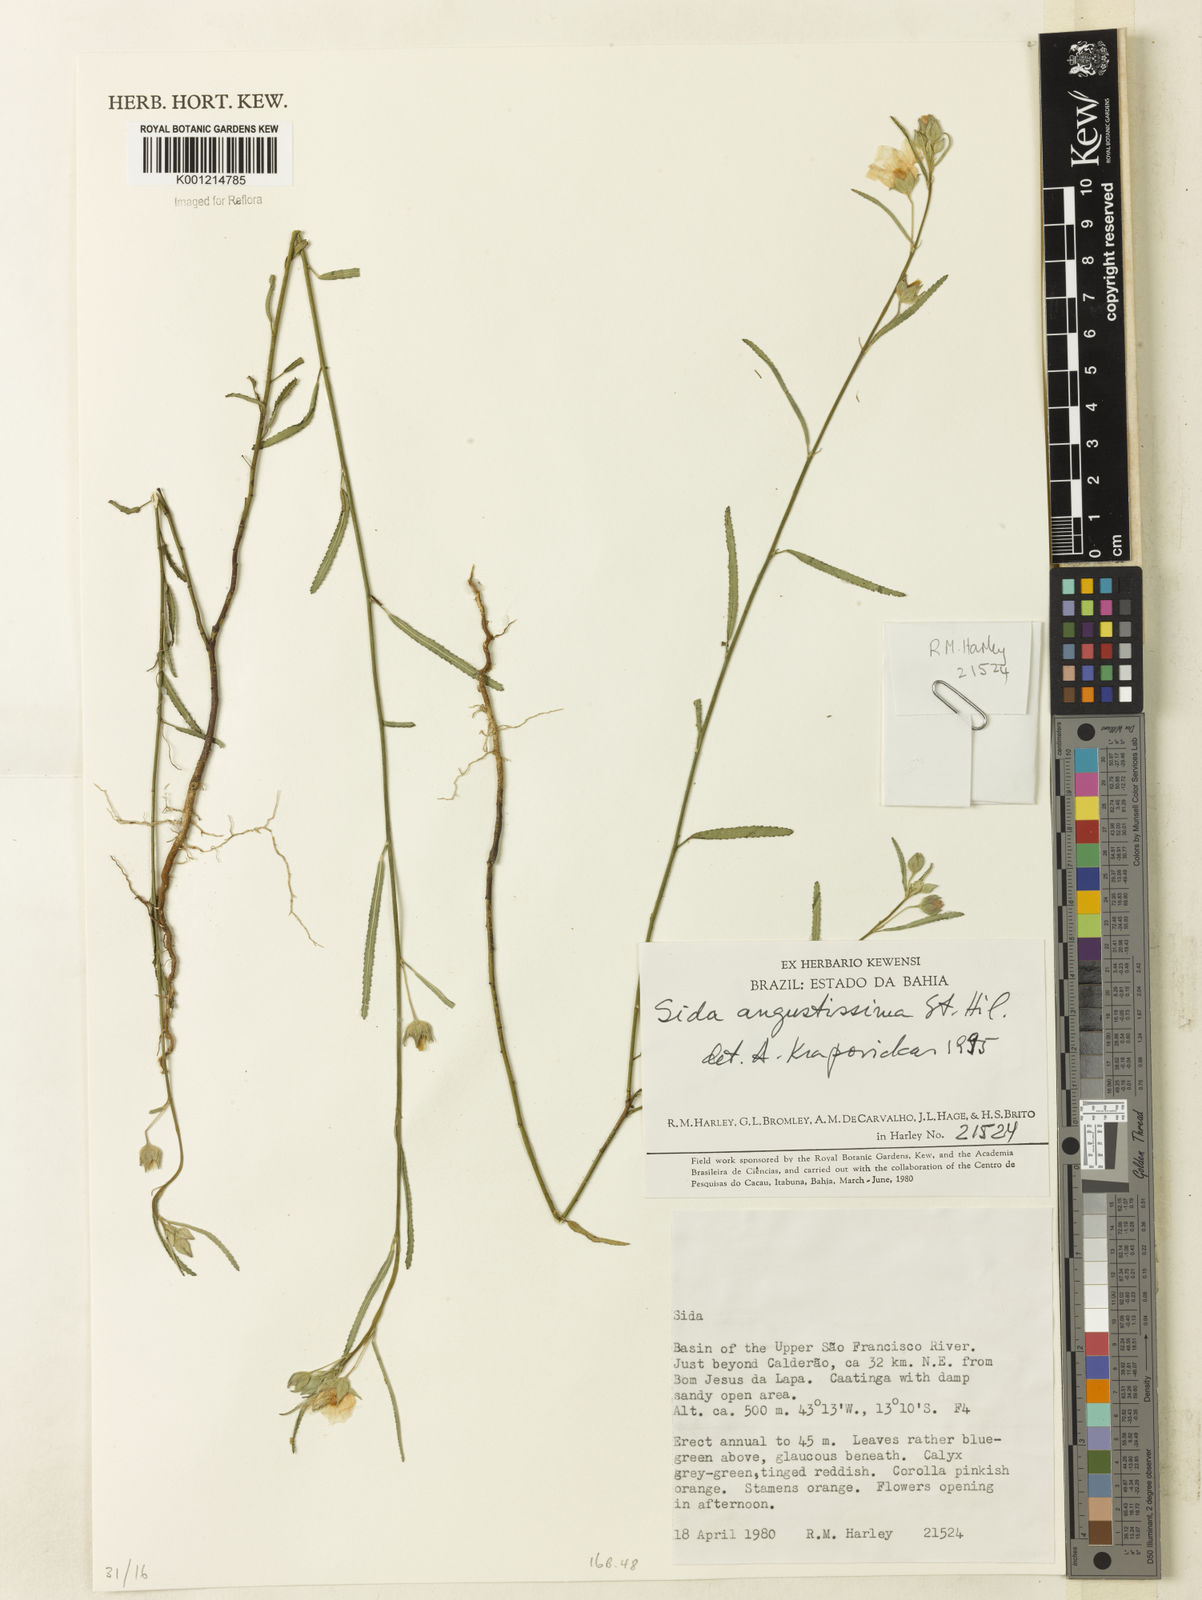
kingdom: Plantae
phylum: Tracheophyta
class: Magnoliopsida
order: Malvales
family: Malvaceae
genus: Sida
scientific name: Sida angustissima
